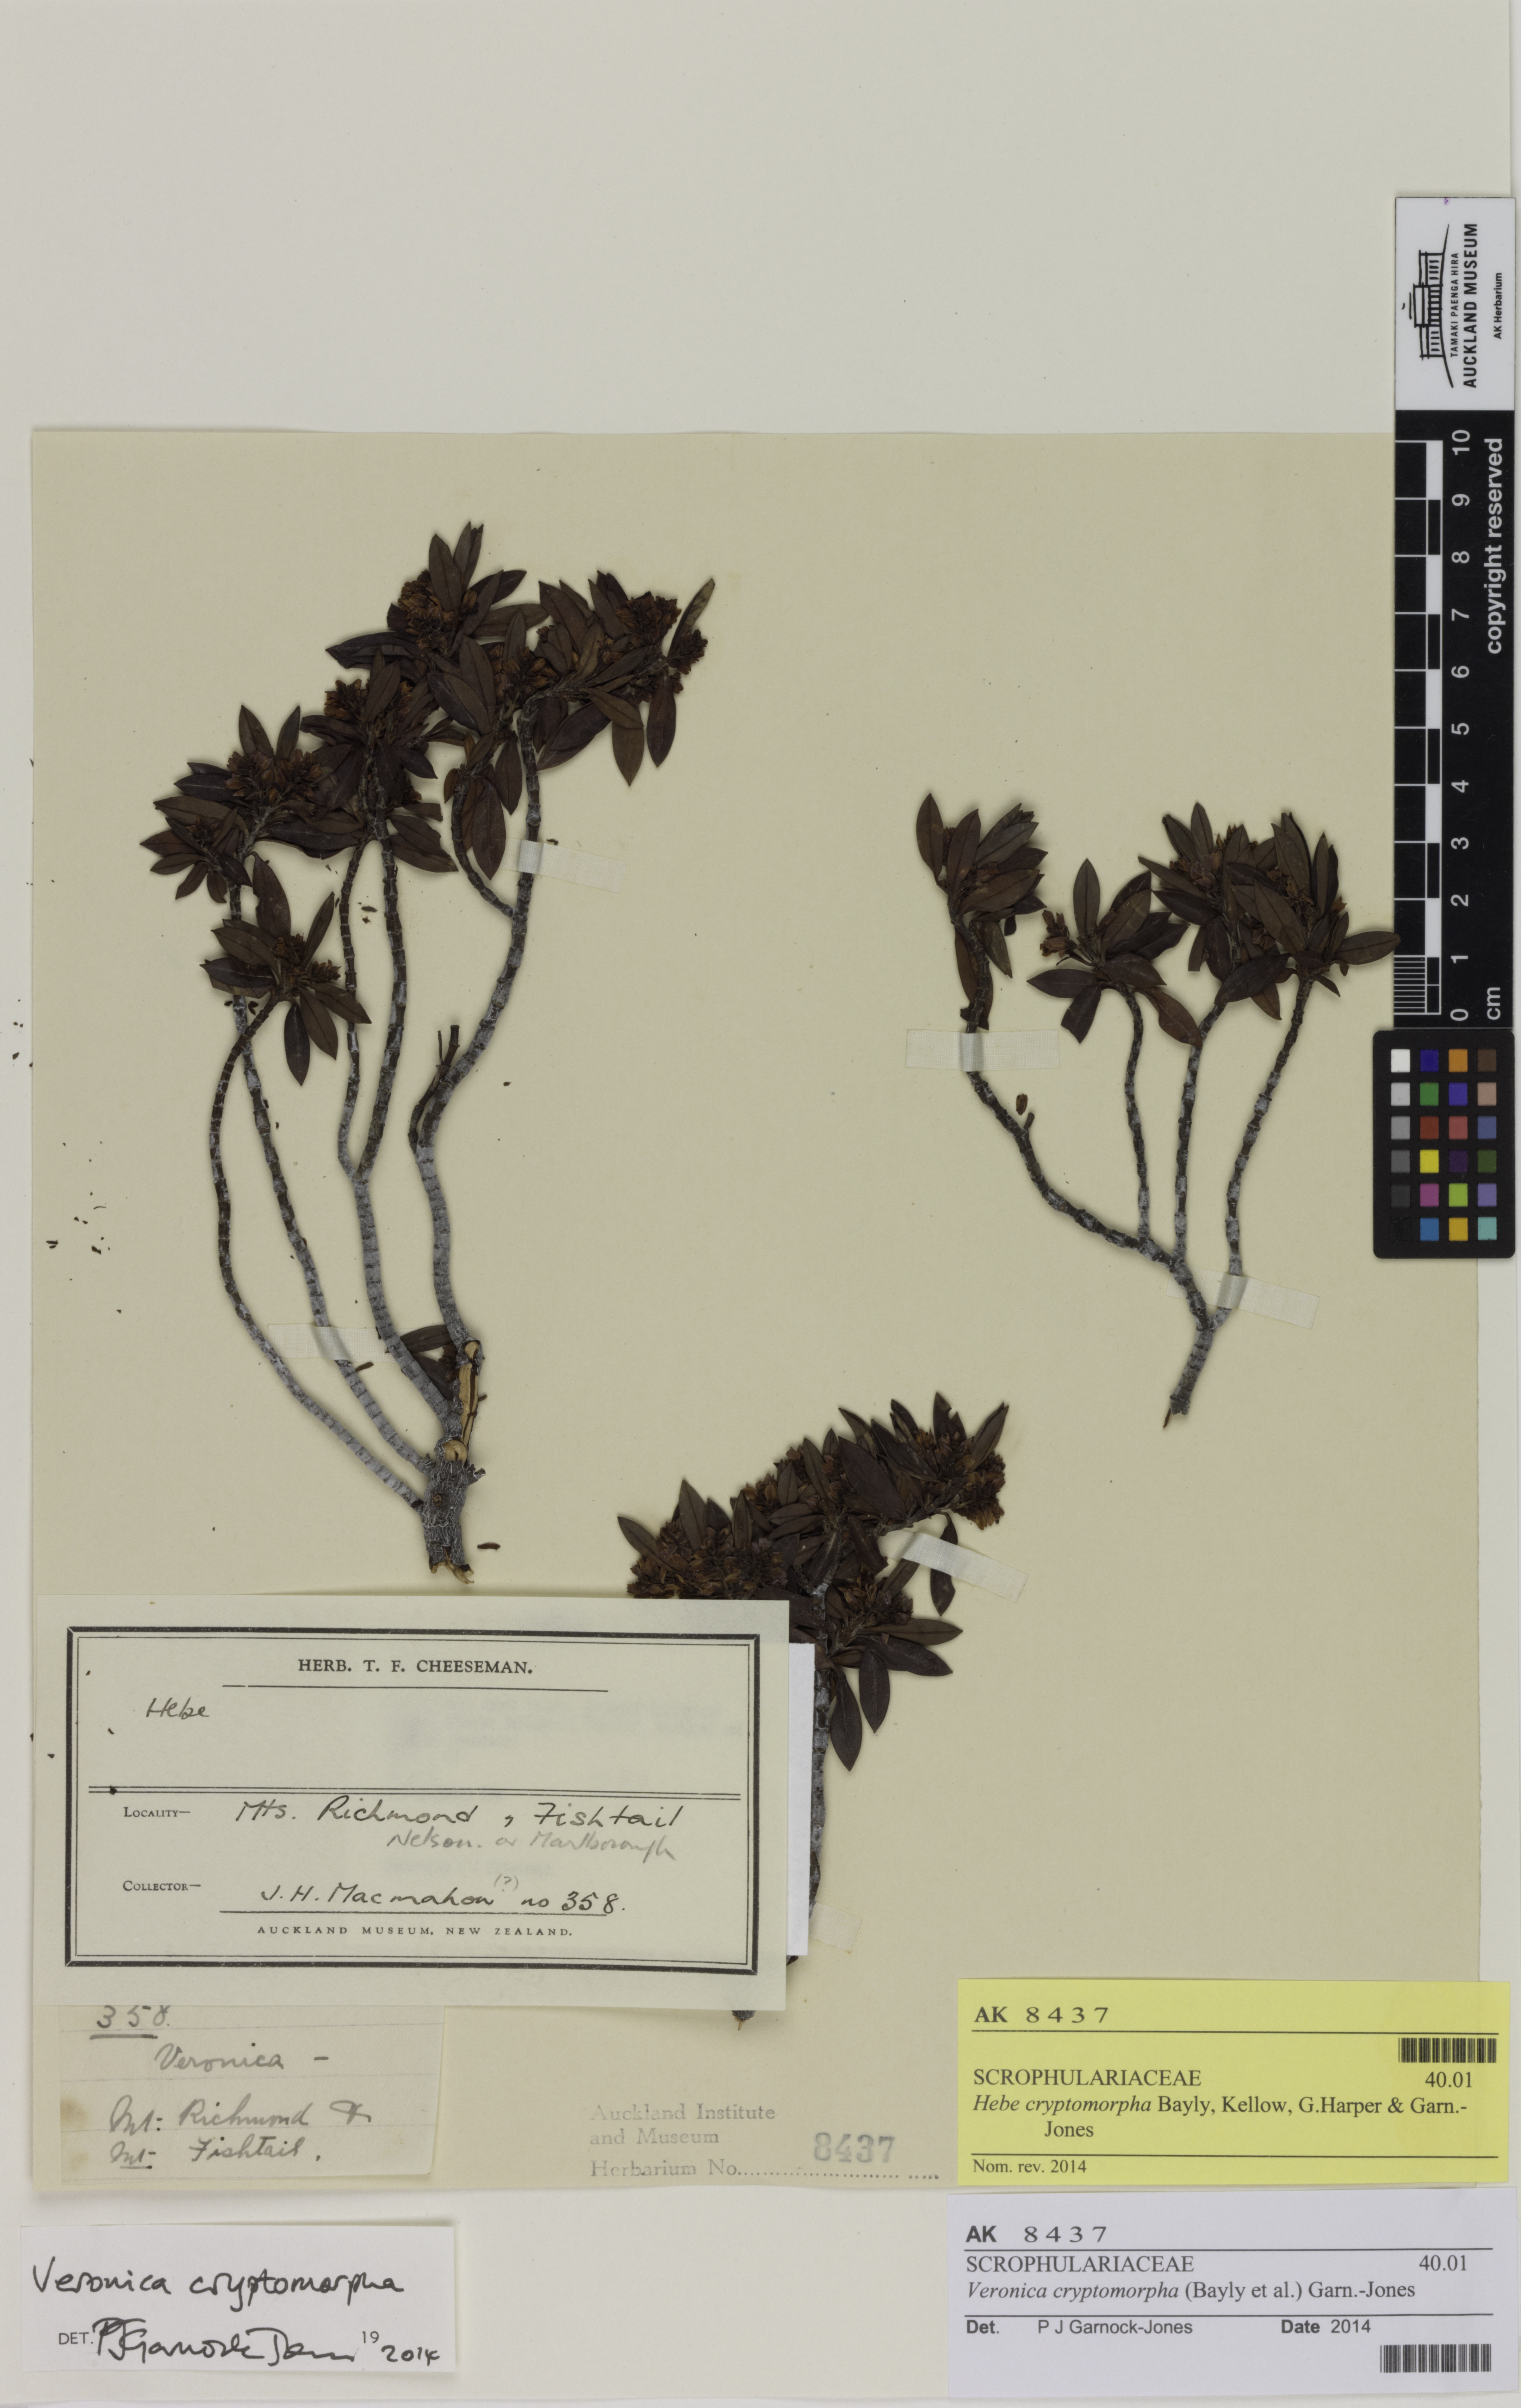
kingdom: Plantae
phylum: Tracheophyta
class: Magnoliopsida
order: Lamiales
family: Plantaginaceae
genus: Veronica
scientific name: Veronica cryptomorpha
